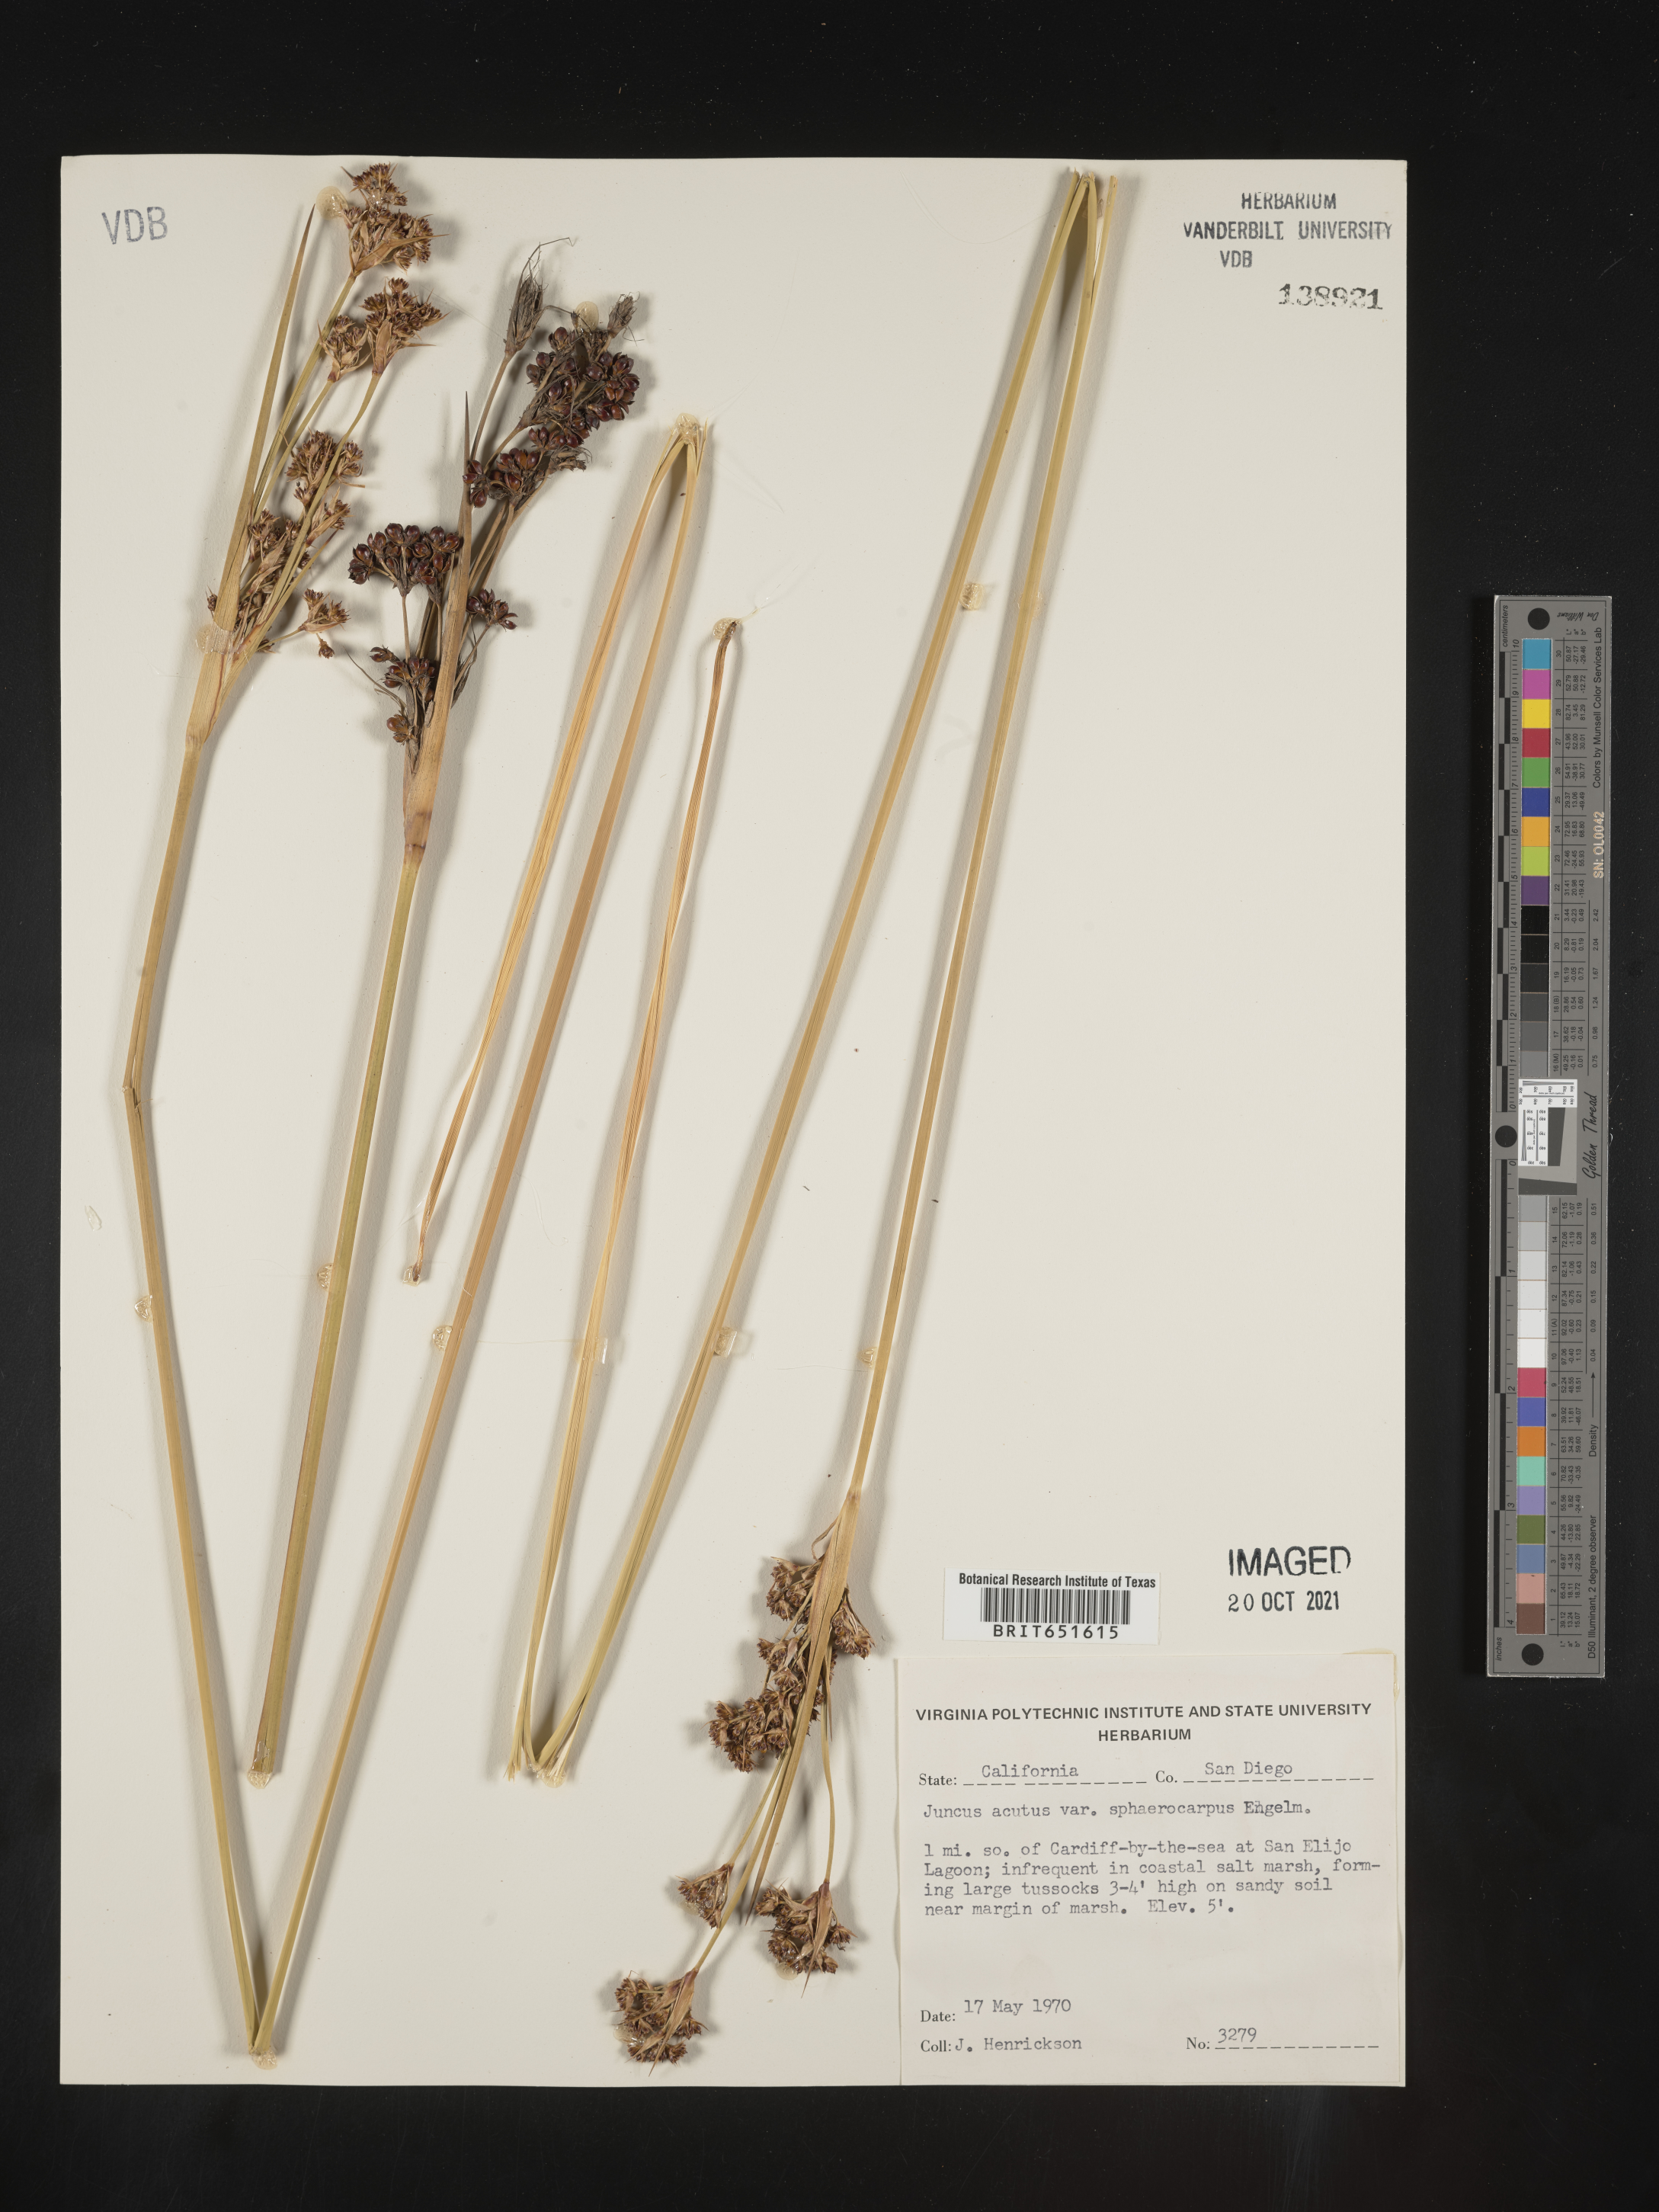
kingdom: Plantae
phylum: Tracheophyta
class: Liliopsida
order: Poales
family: Juncaceae
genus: Juncus
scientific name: Juncus acutus
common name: Sharp rush
